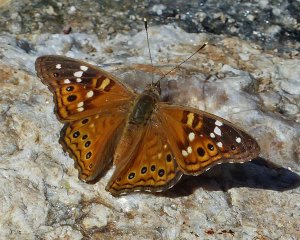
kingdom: Animalia
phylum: Arthropoda
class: Insecta
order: Lepidoptera
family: Nymphalidae
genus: Asterocampa
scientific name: Asterocampa leilia
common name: Empress Leilia
